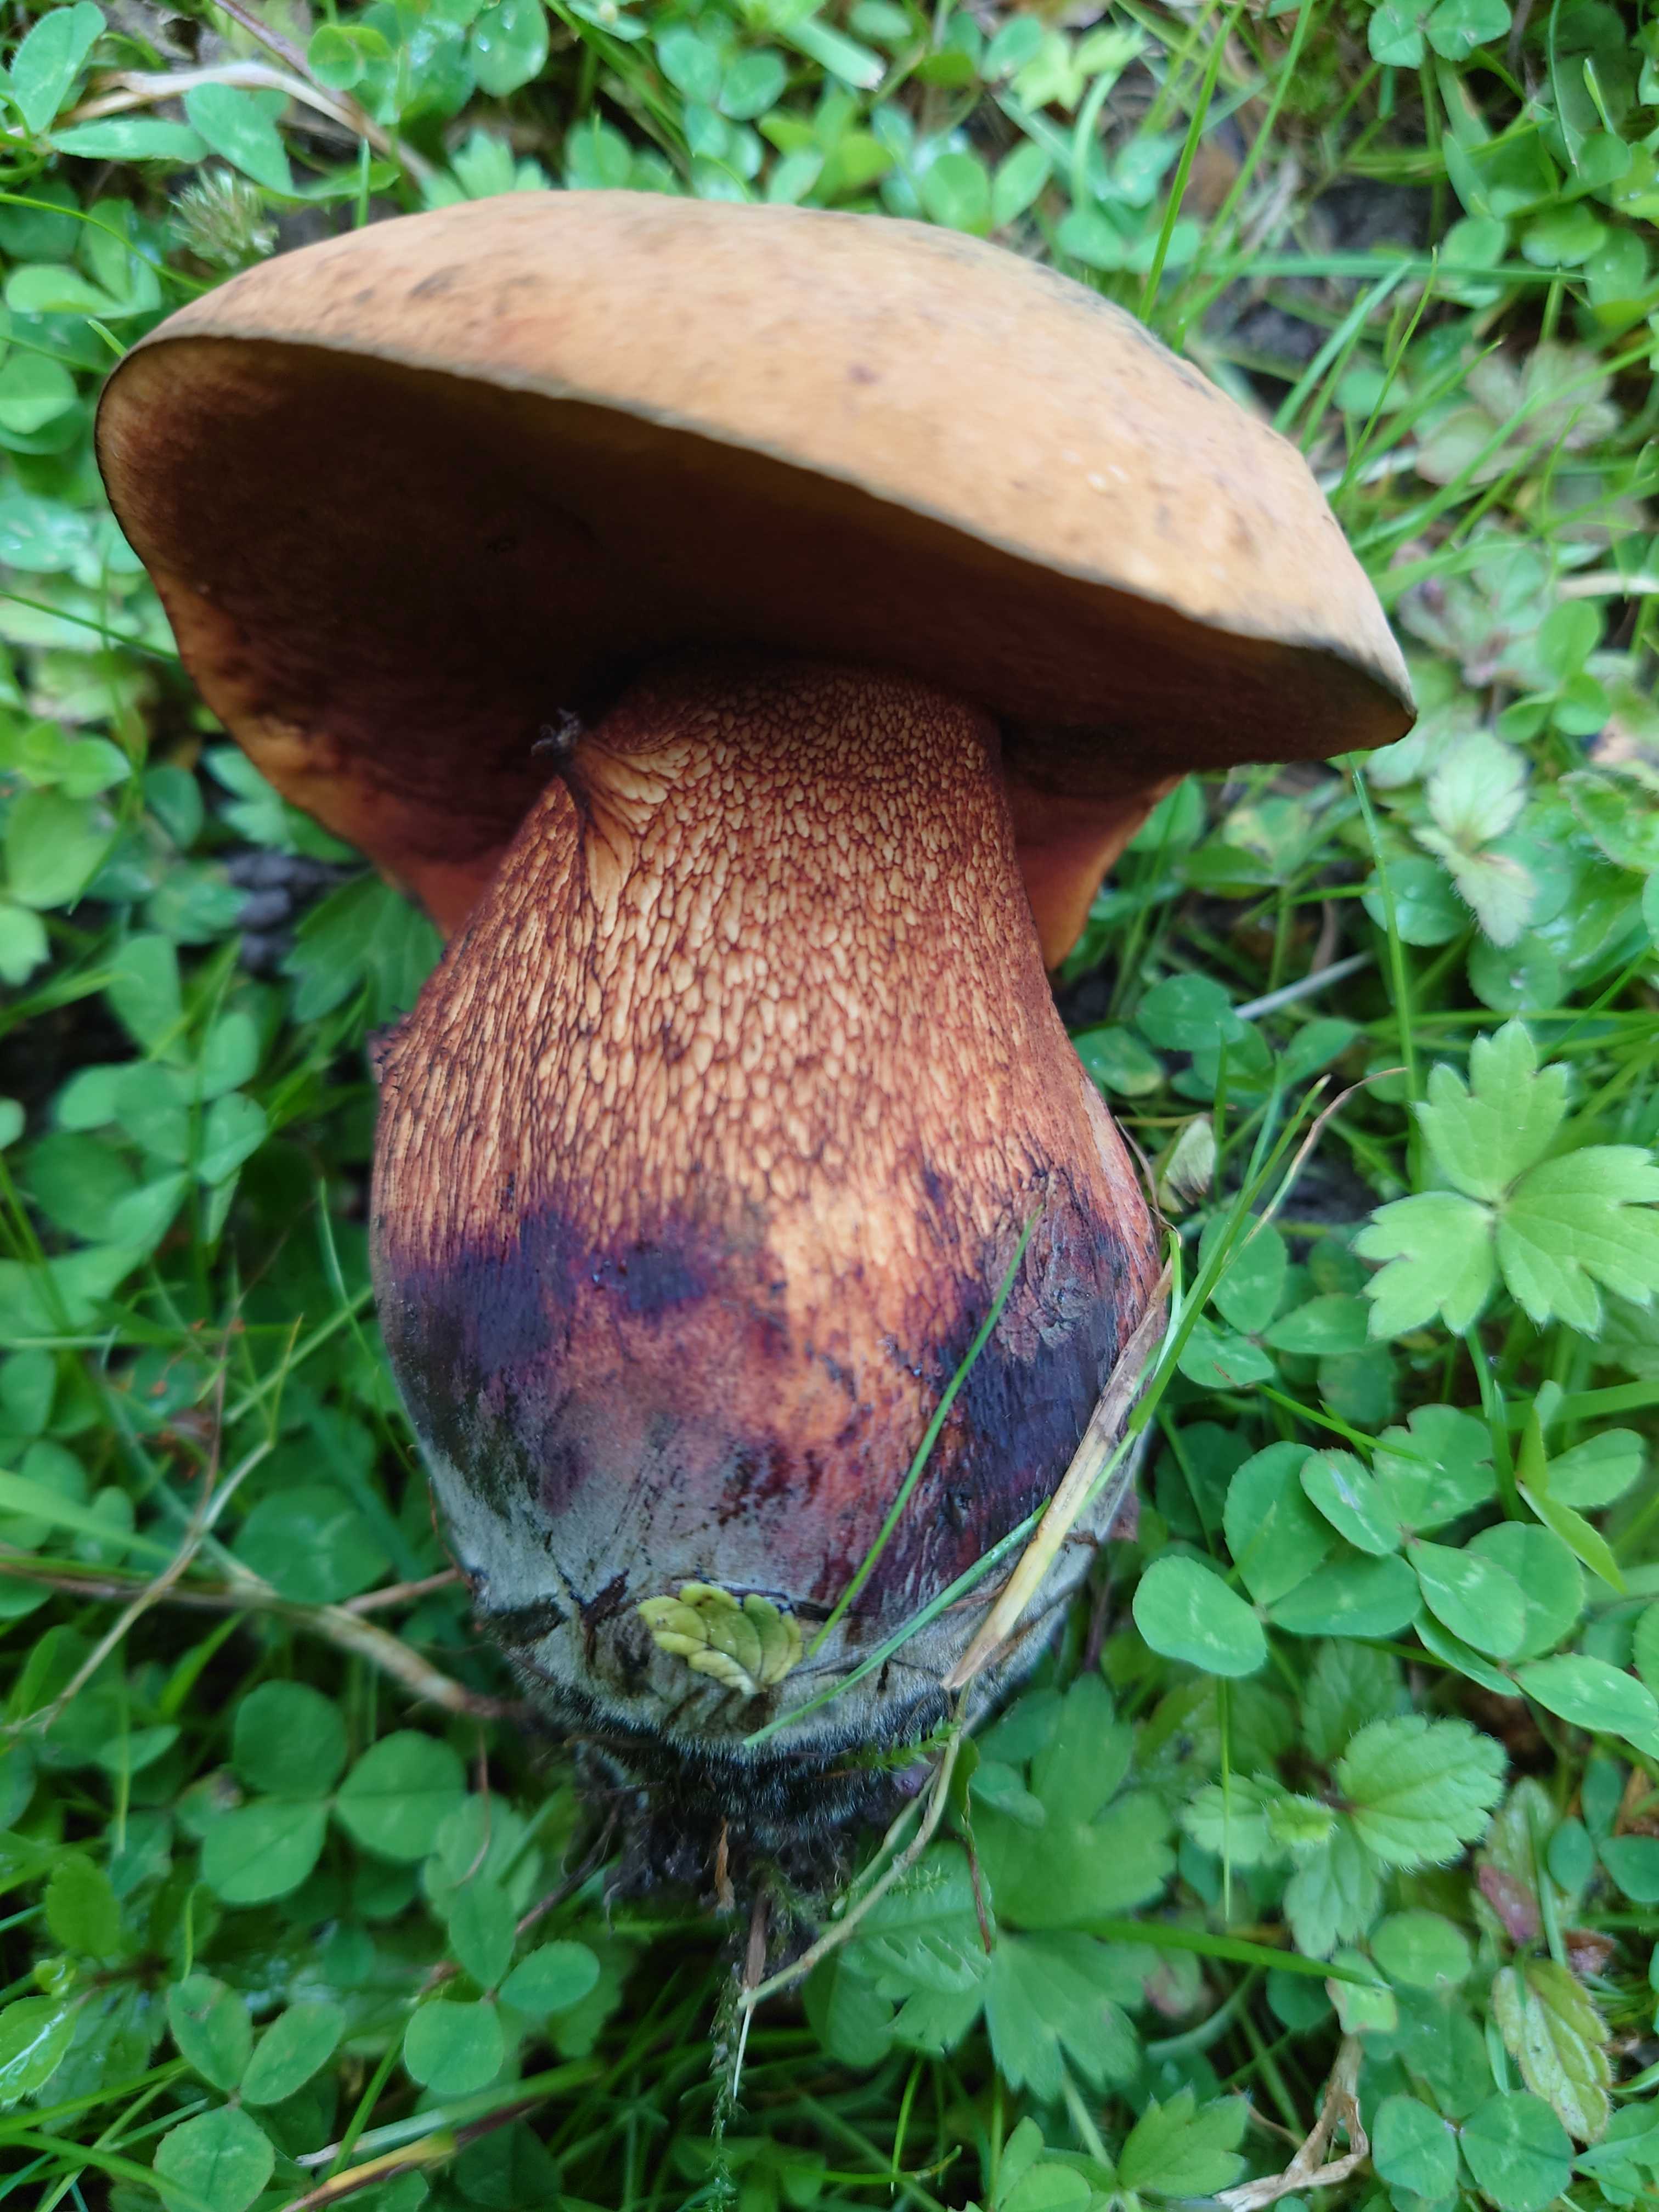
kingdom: Fungi
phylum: Basidiomycota
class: Agaricomycetes
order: Boletales
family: Boletaceae
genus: Suillellus
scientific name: Suillellus luridus
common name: netstokket indigorørhat
